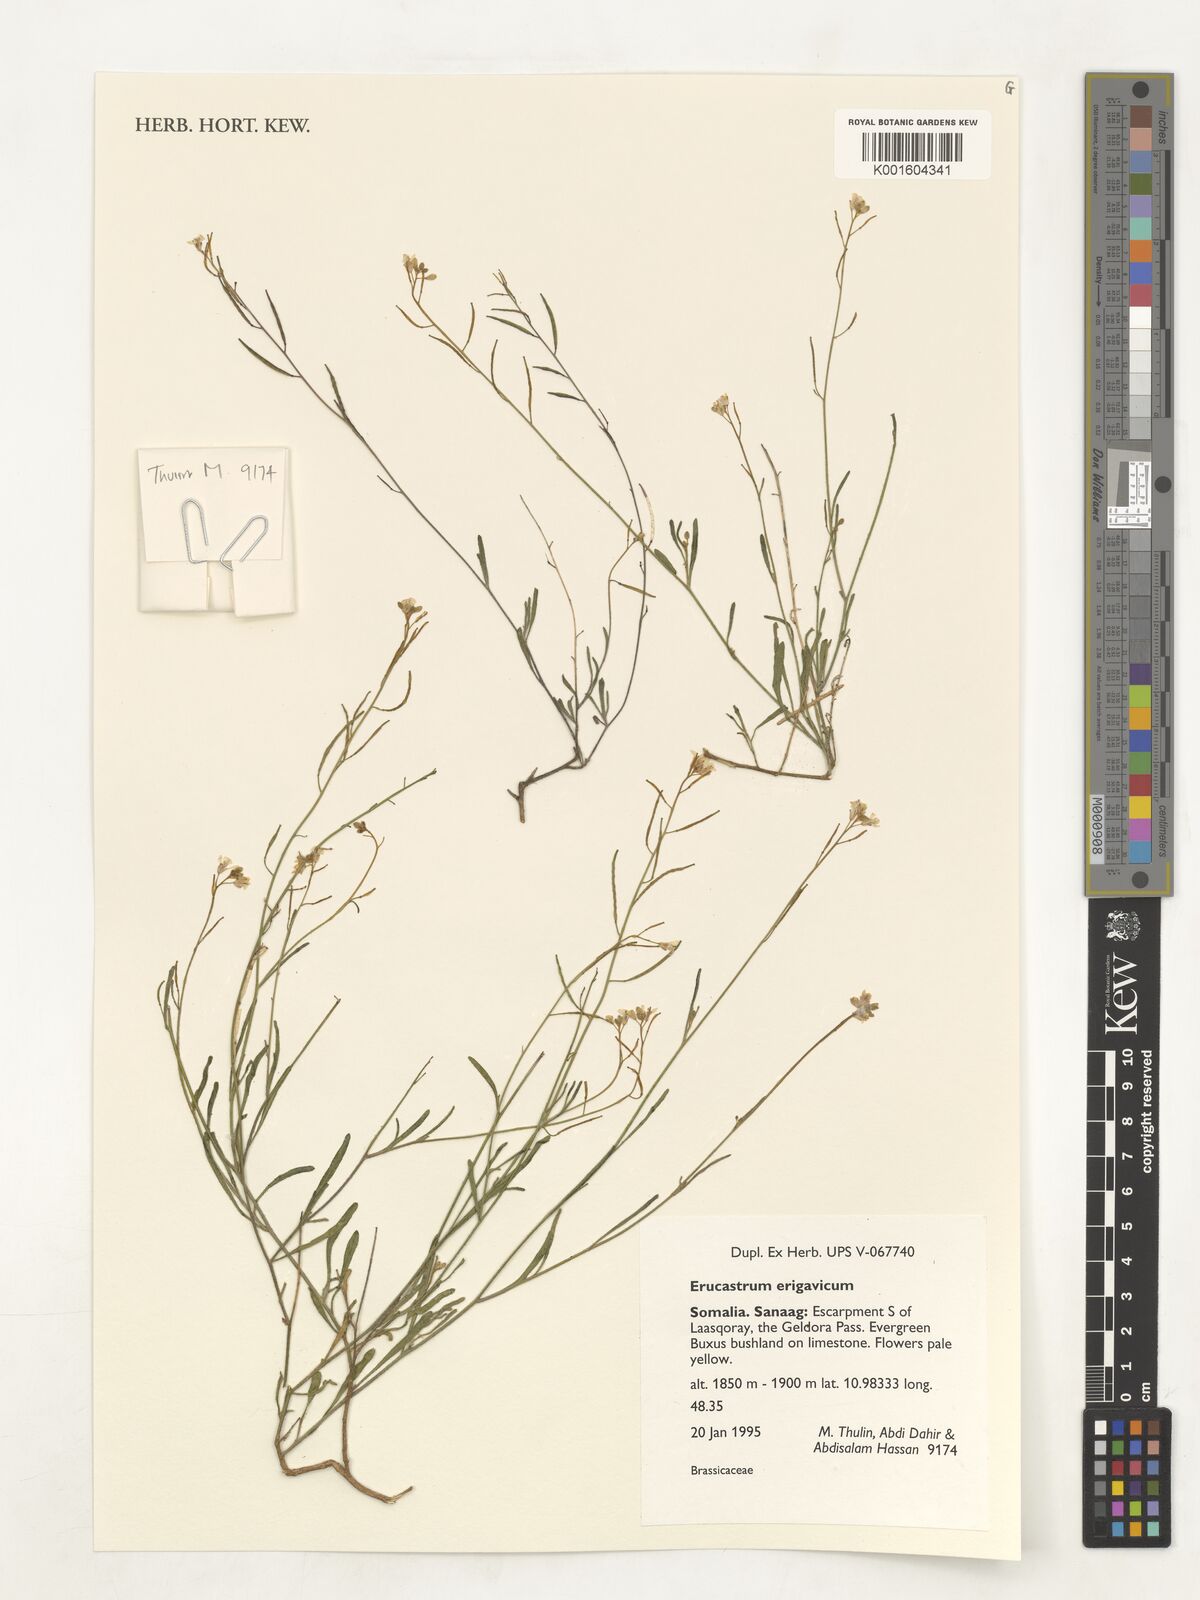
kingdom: Plantae
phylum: Tracheophyta
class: Magnoliopsida
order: Brassicales
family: Brassicaceae
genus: Erucastrum
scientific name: Erucastrum erigavicum
